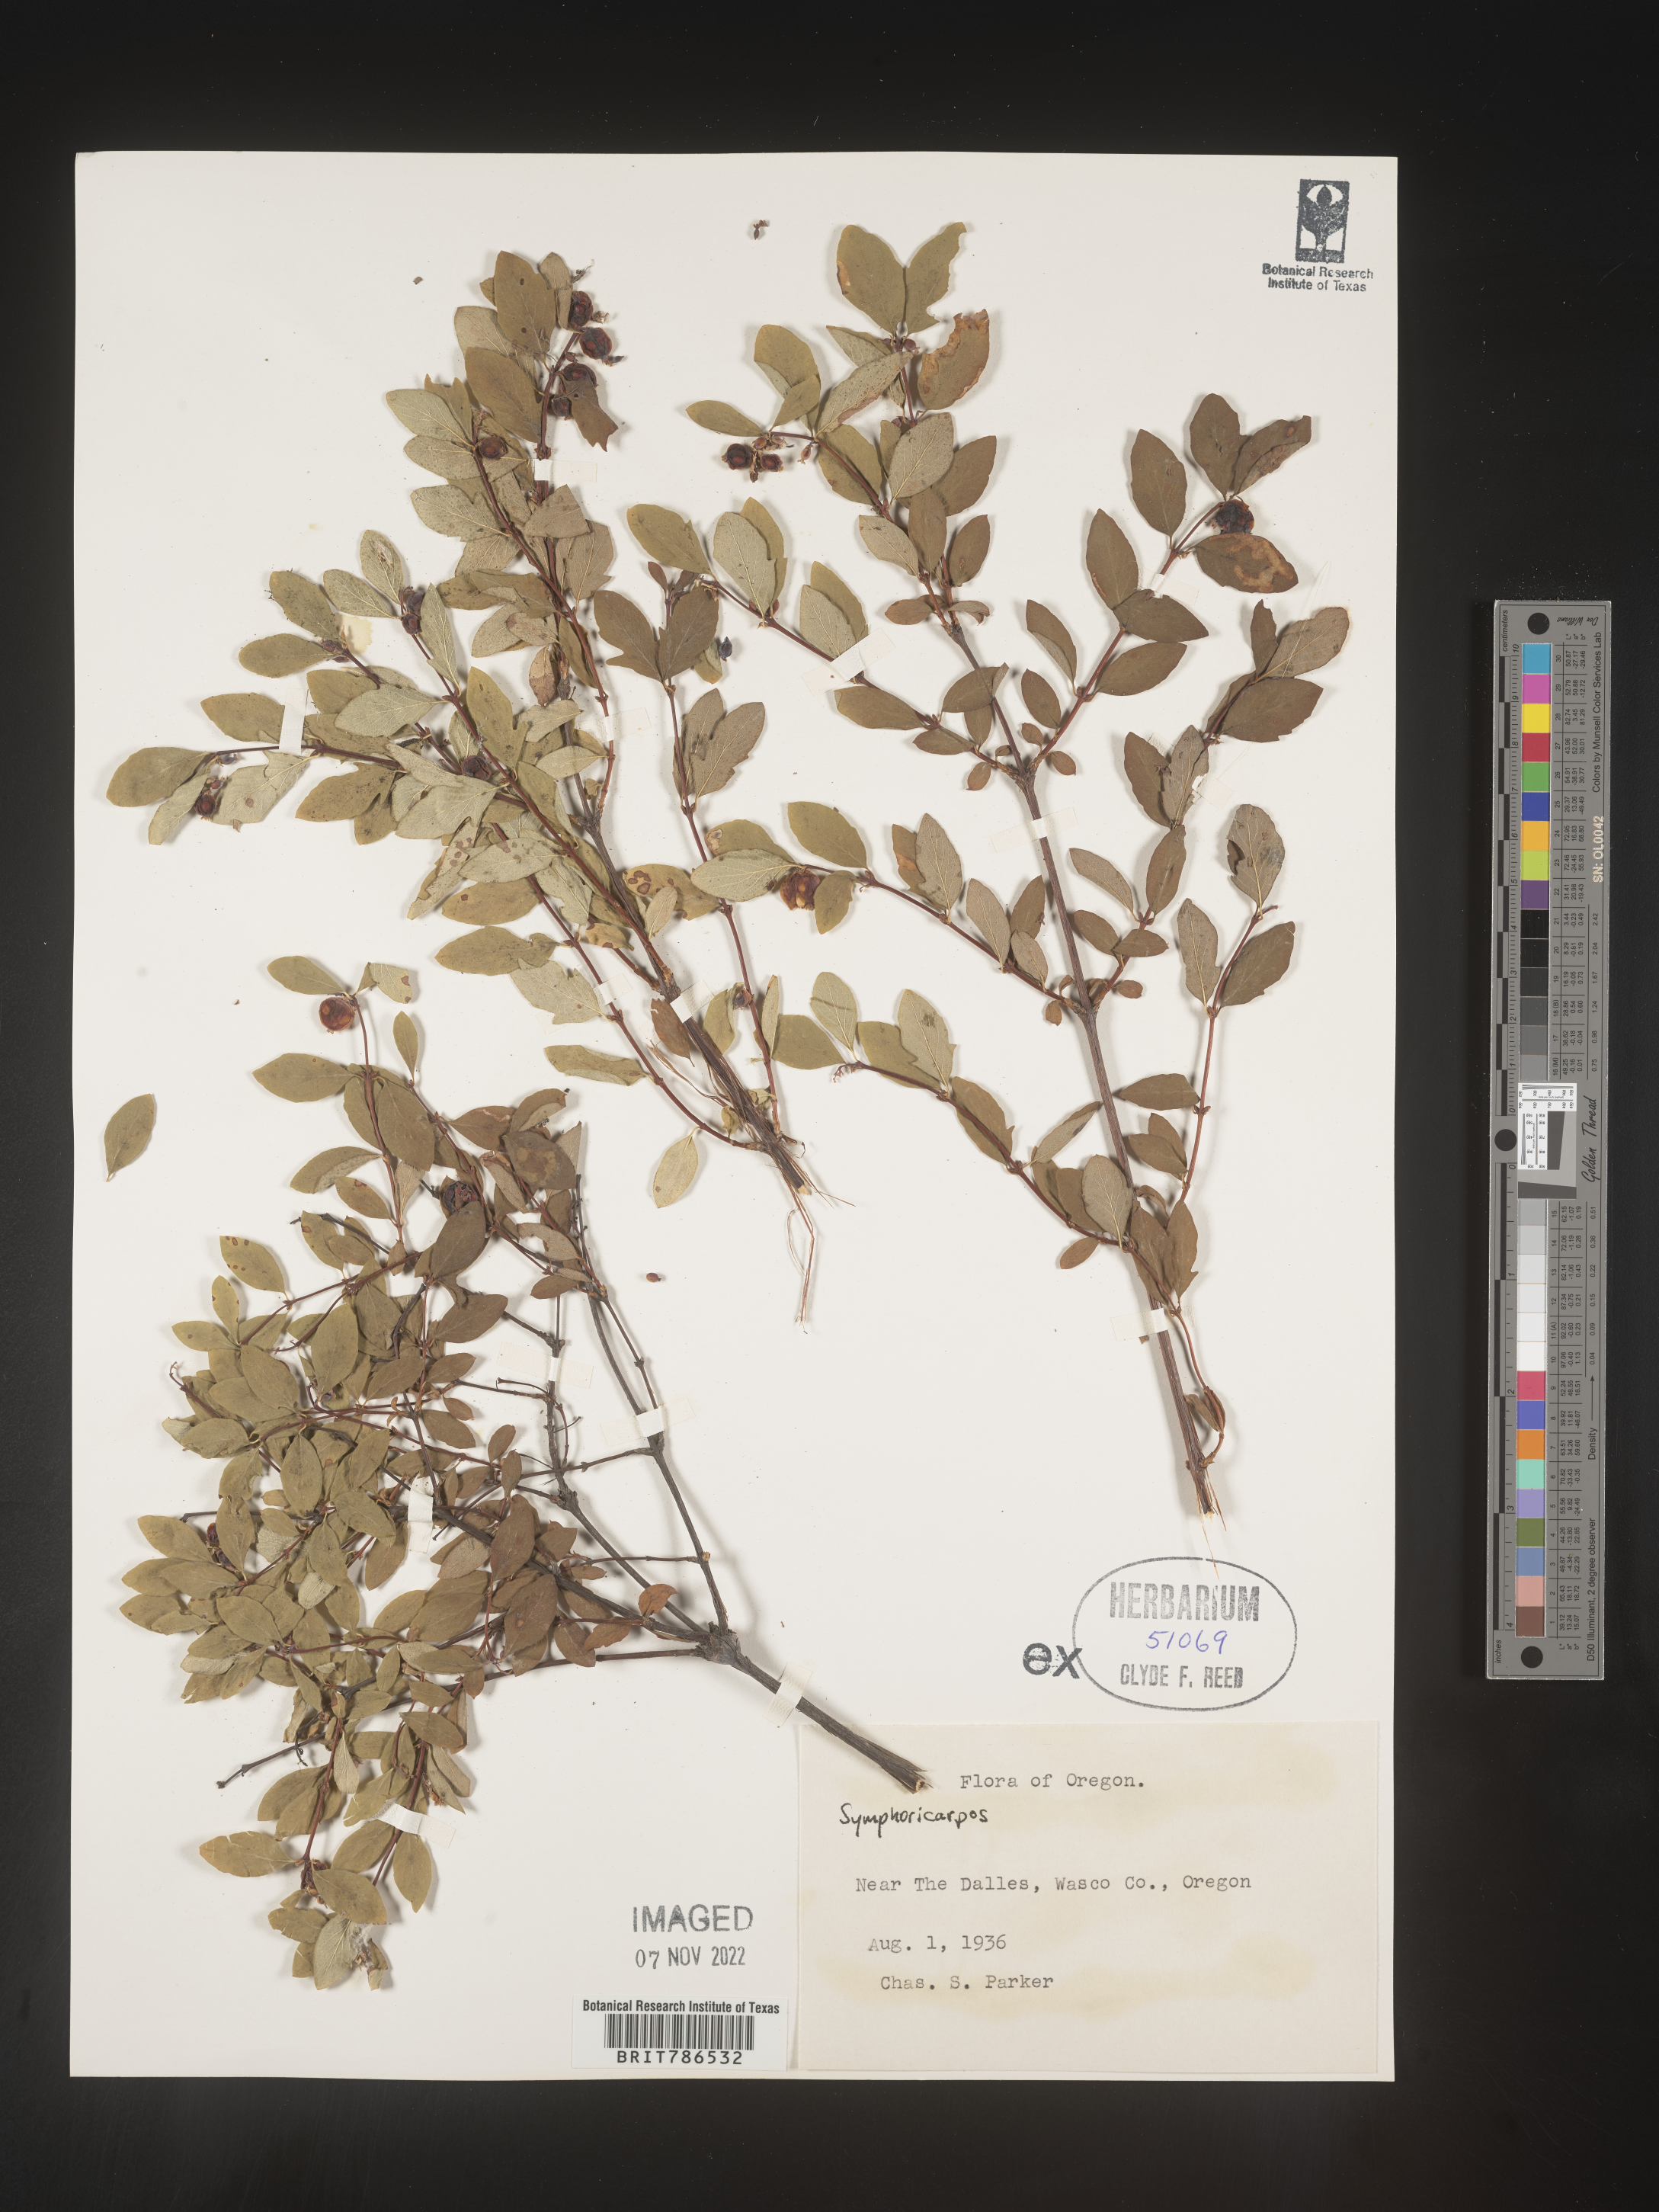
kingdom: Plantae
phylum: Tracheophyta
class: Magnoliopsida
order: Dipsacales
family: Caprifoliaceae
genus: Symphoricarpos
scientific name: Symphoricarpos
